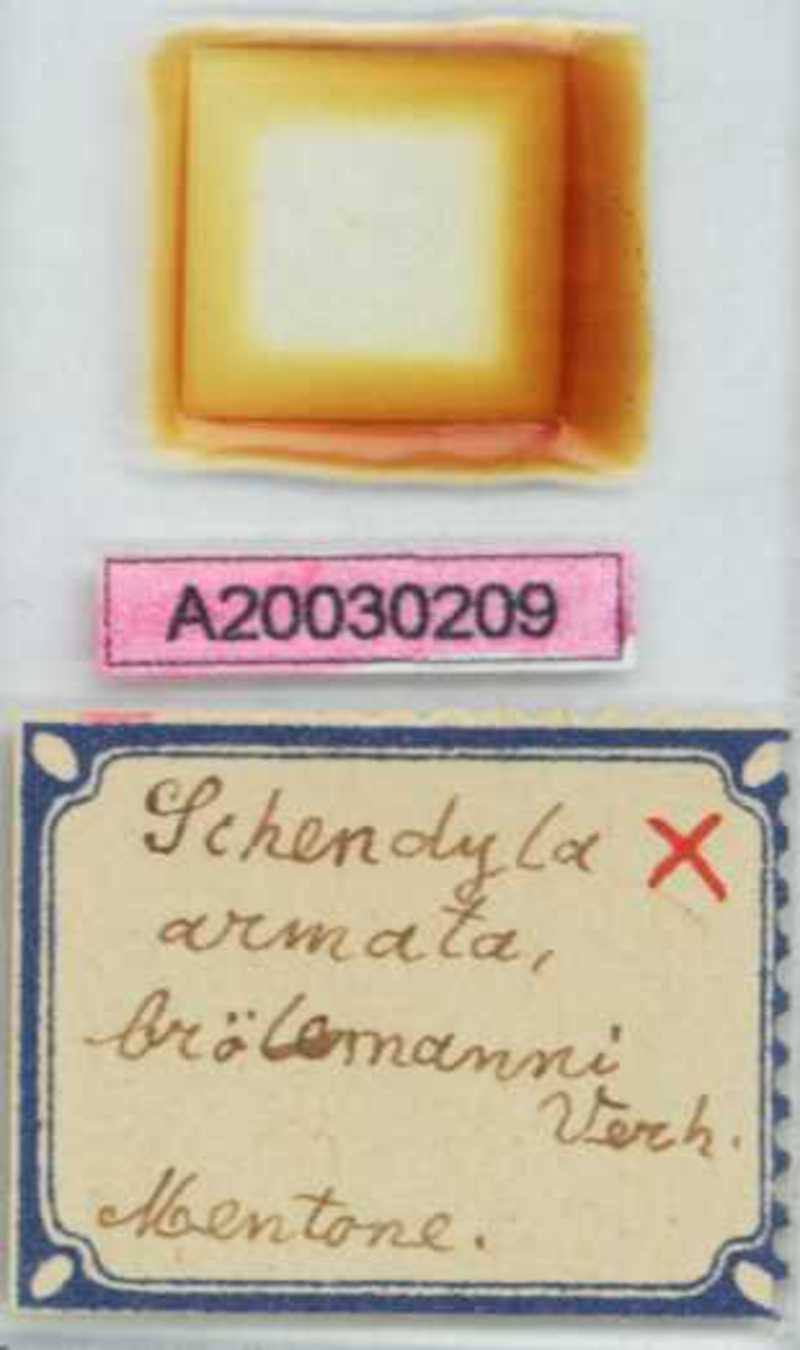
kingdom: Animalia
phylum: Arthropoda
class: Chilopoda
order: Geophilomorpha
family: Schendylidae
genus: Schendyla
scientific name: Schendyla armata
